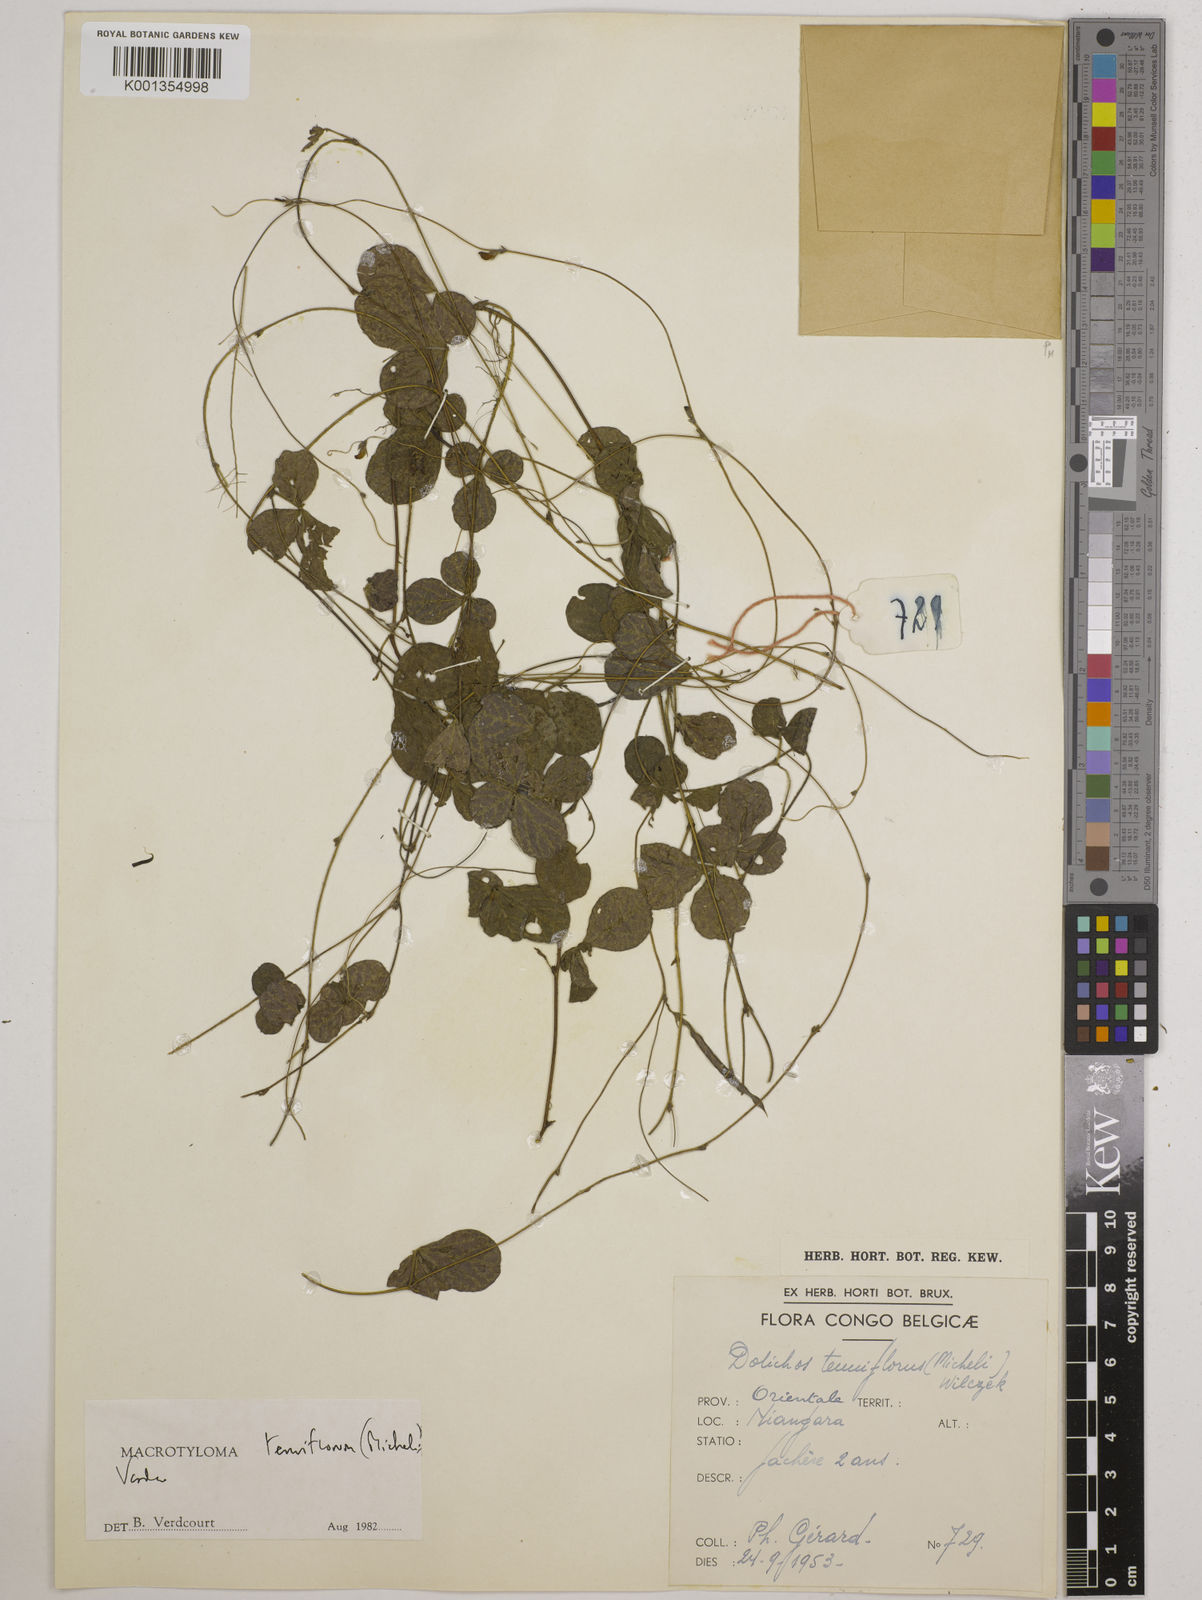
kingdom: Plantae
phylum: Tracheophyta
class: Magnoliopsida
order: Fabales
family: Fabaceae
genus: Macrotyloma
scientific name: Macrotyloma tenuiflorum
